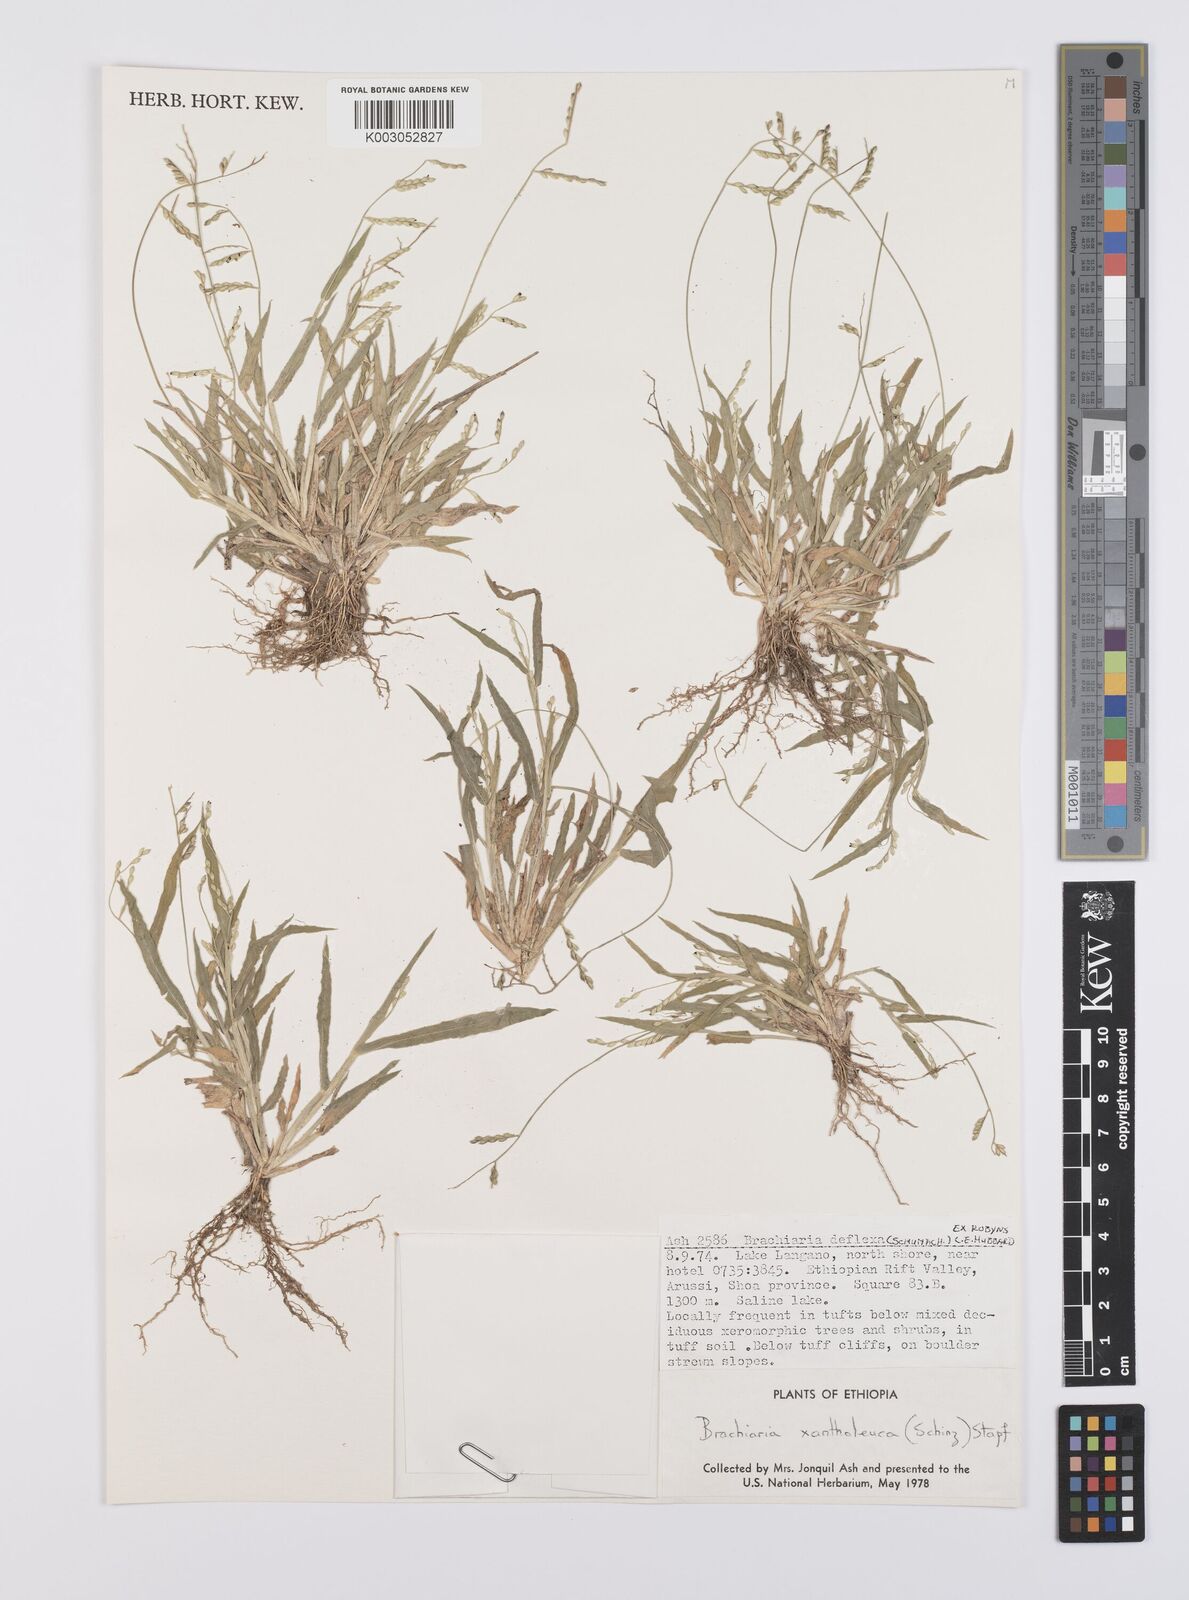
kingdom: Plantae
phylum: Tracheophyta
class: Liliopsida
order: Poales
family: Poaceae
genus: Urochloa
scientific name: Urochloa xantholeuca
